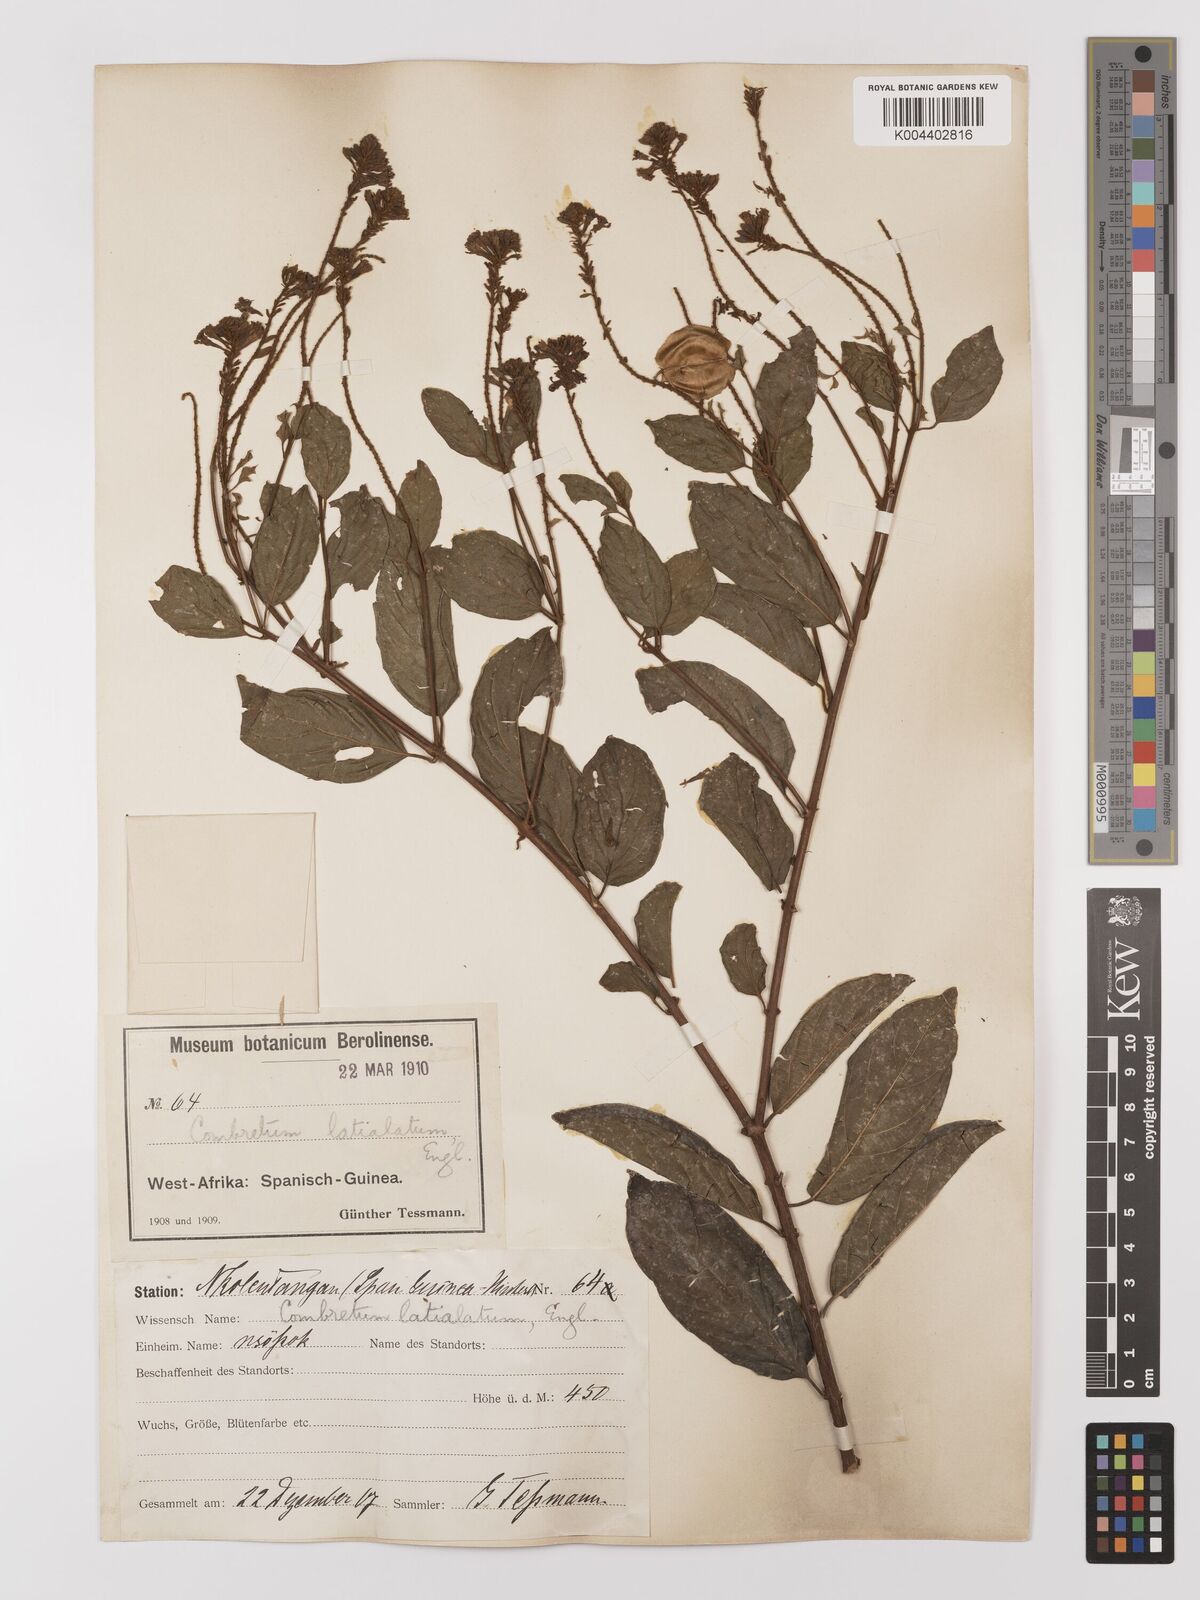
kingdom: Plantae
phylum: Tracheophyta
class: Magnoliopsida
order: Myrtales
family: Combretaceae
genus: Combretum
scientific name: Combretum latialatum
